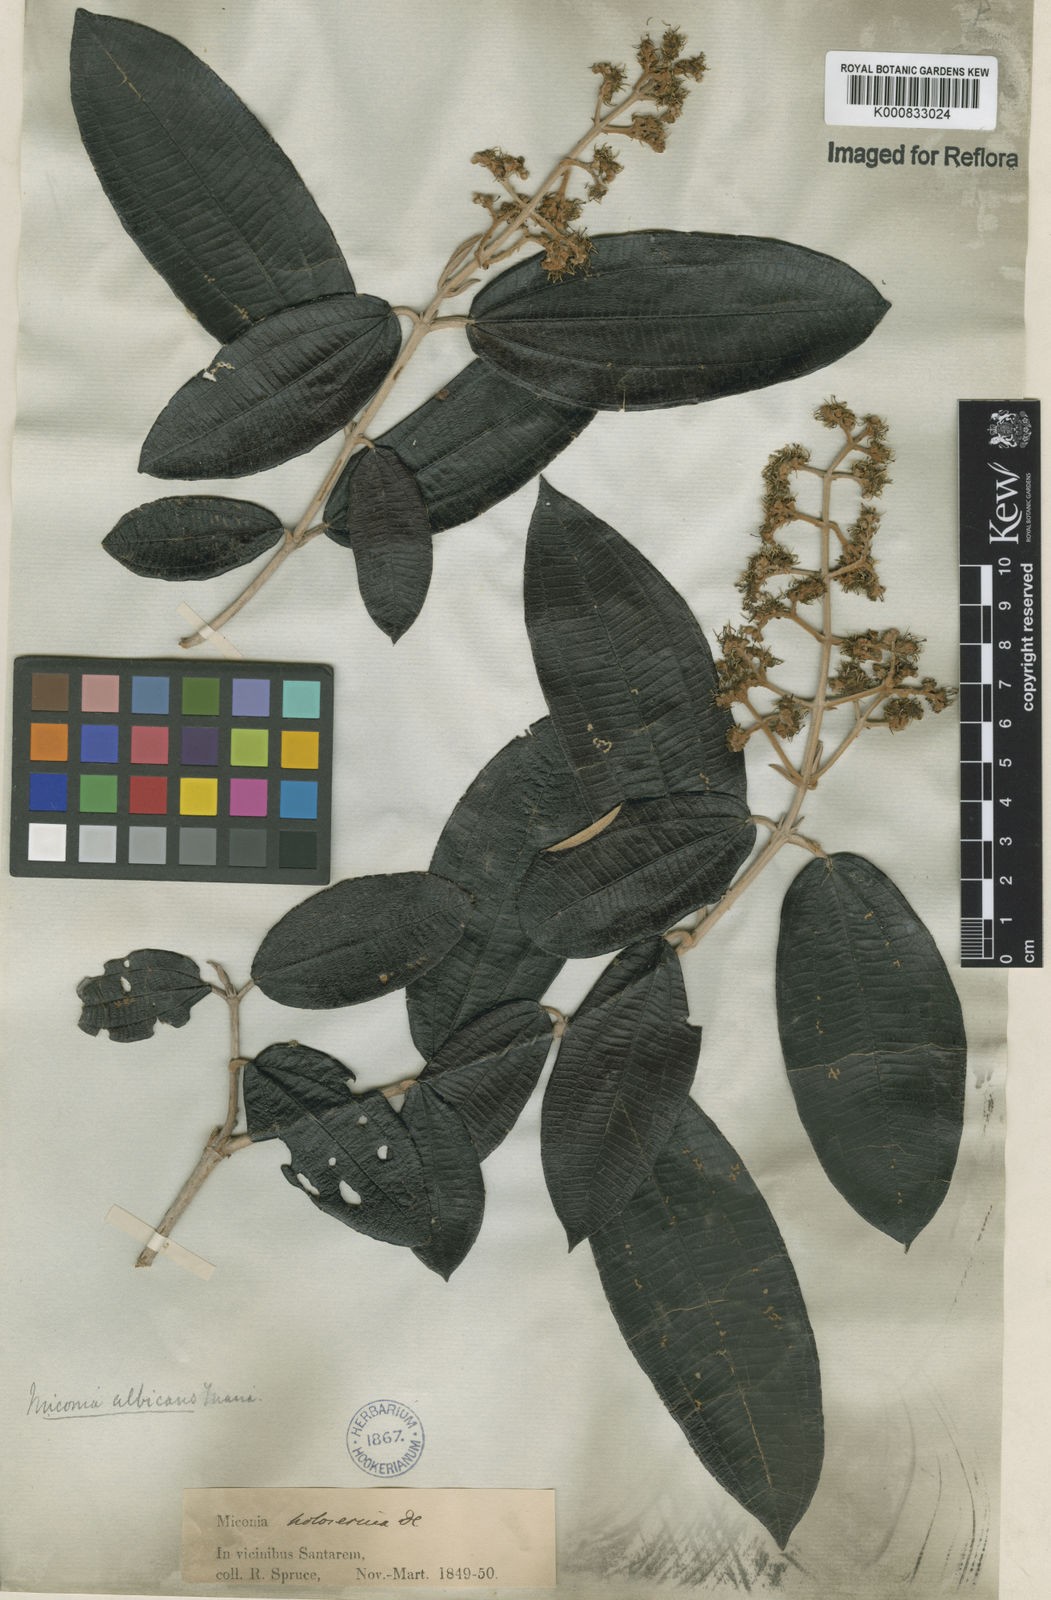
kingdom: Plantae
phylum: Tracheophyta
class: Magnoliopsida
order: Myrtales
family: Melastomataceae
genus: Miconia
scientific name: Miconia albicans
